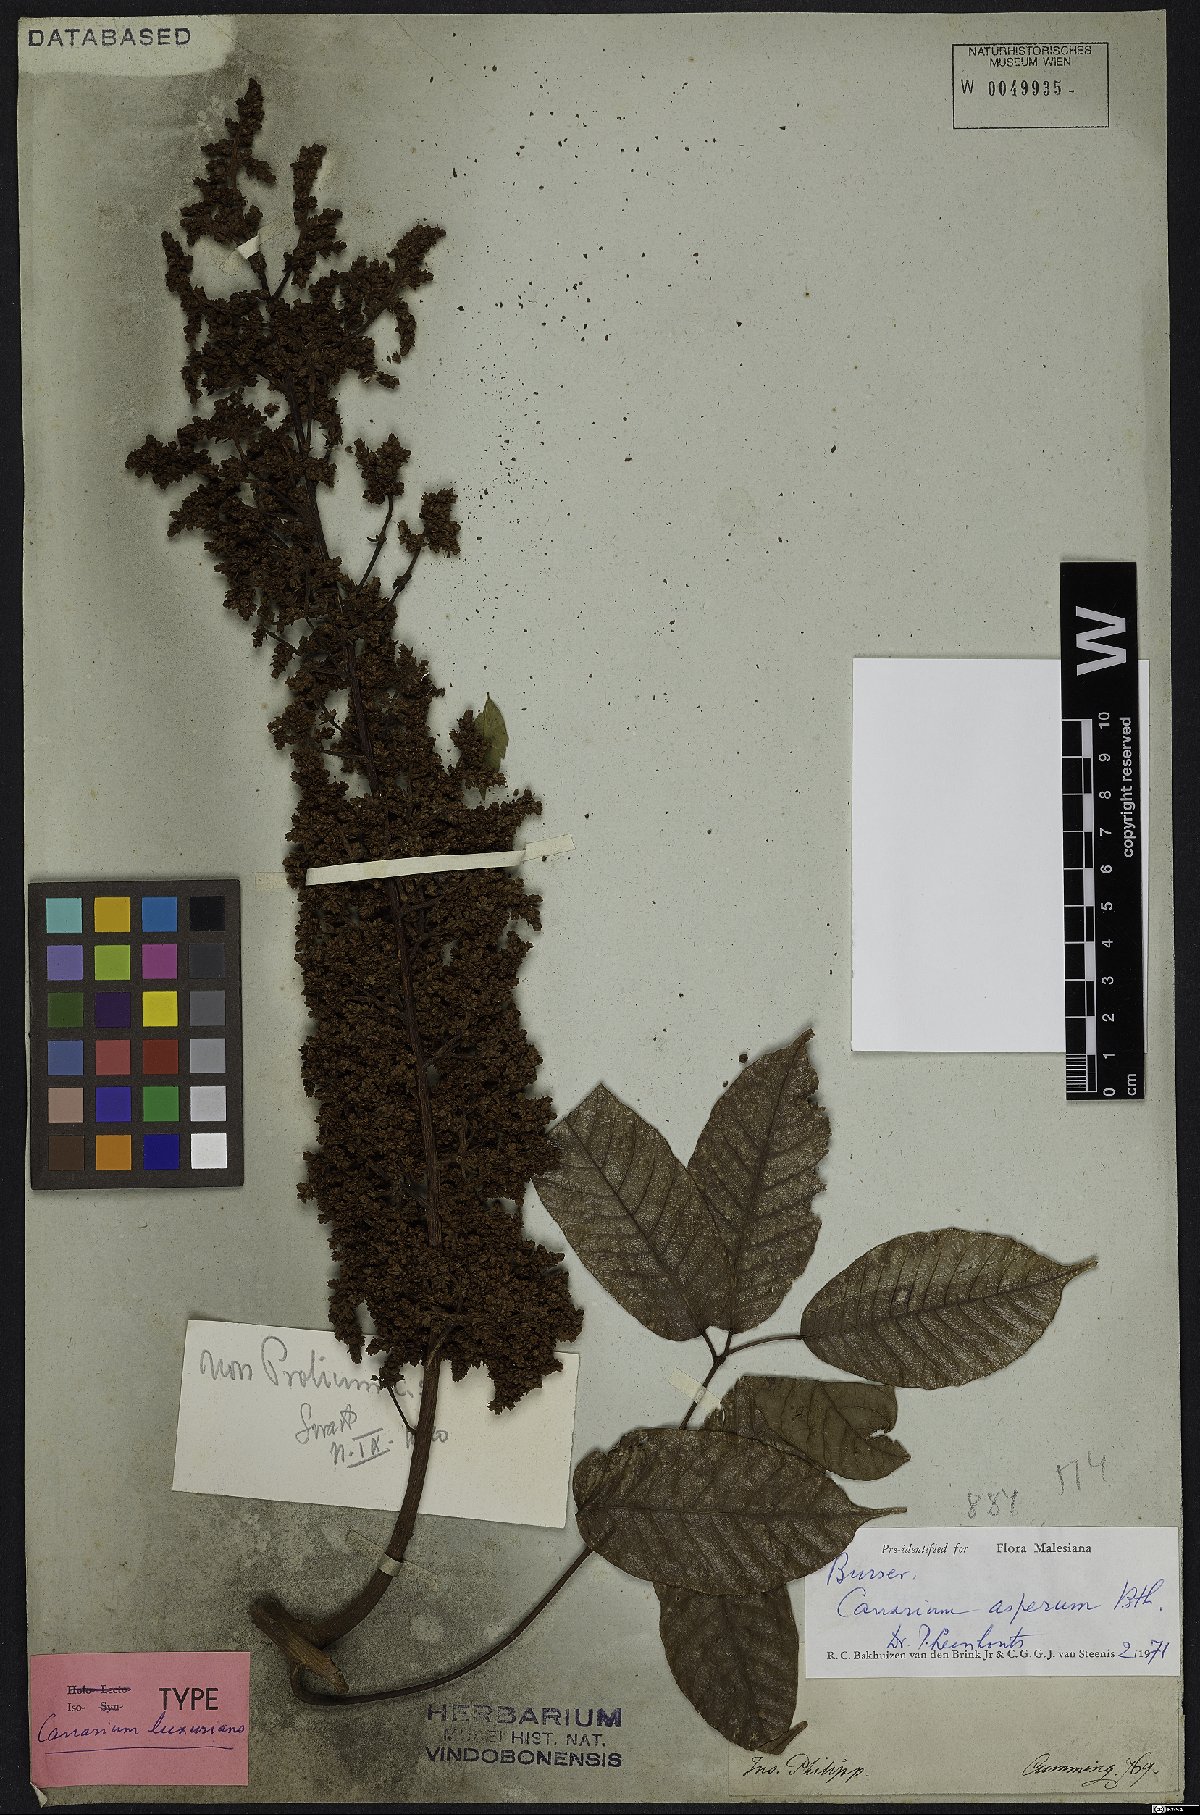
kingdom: Plantae
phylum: Tracheophyta
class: Magnoliopsida
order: Sapindales
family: Burseraceae
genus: Canarium
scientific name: Canarium asperum
